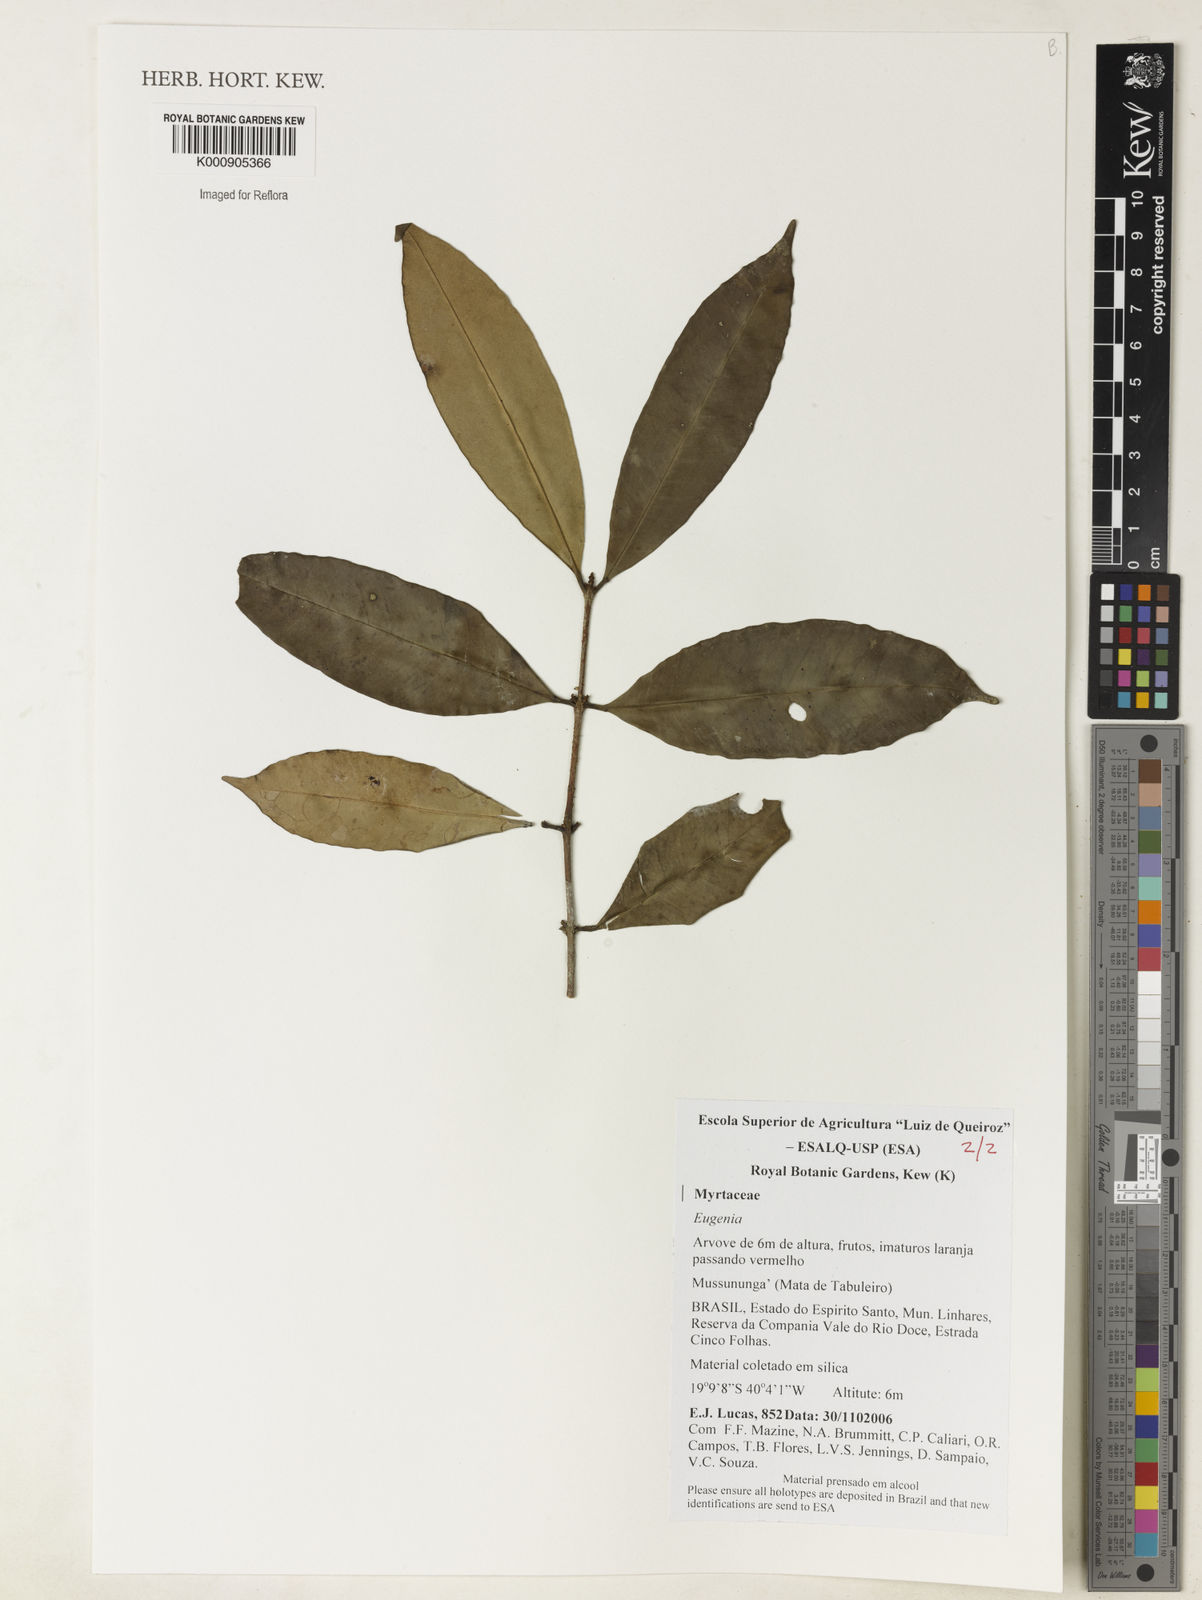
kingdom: Plantae
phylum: Tracheophyta
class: Magnoliopsida
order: Myrtales
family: Myrtaceae
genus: Eugenia
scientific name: Eugenia pisiformis
